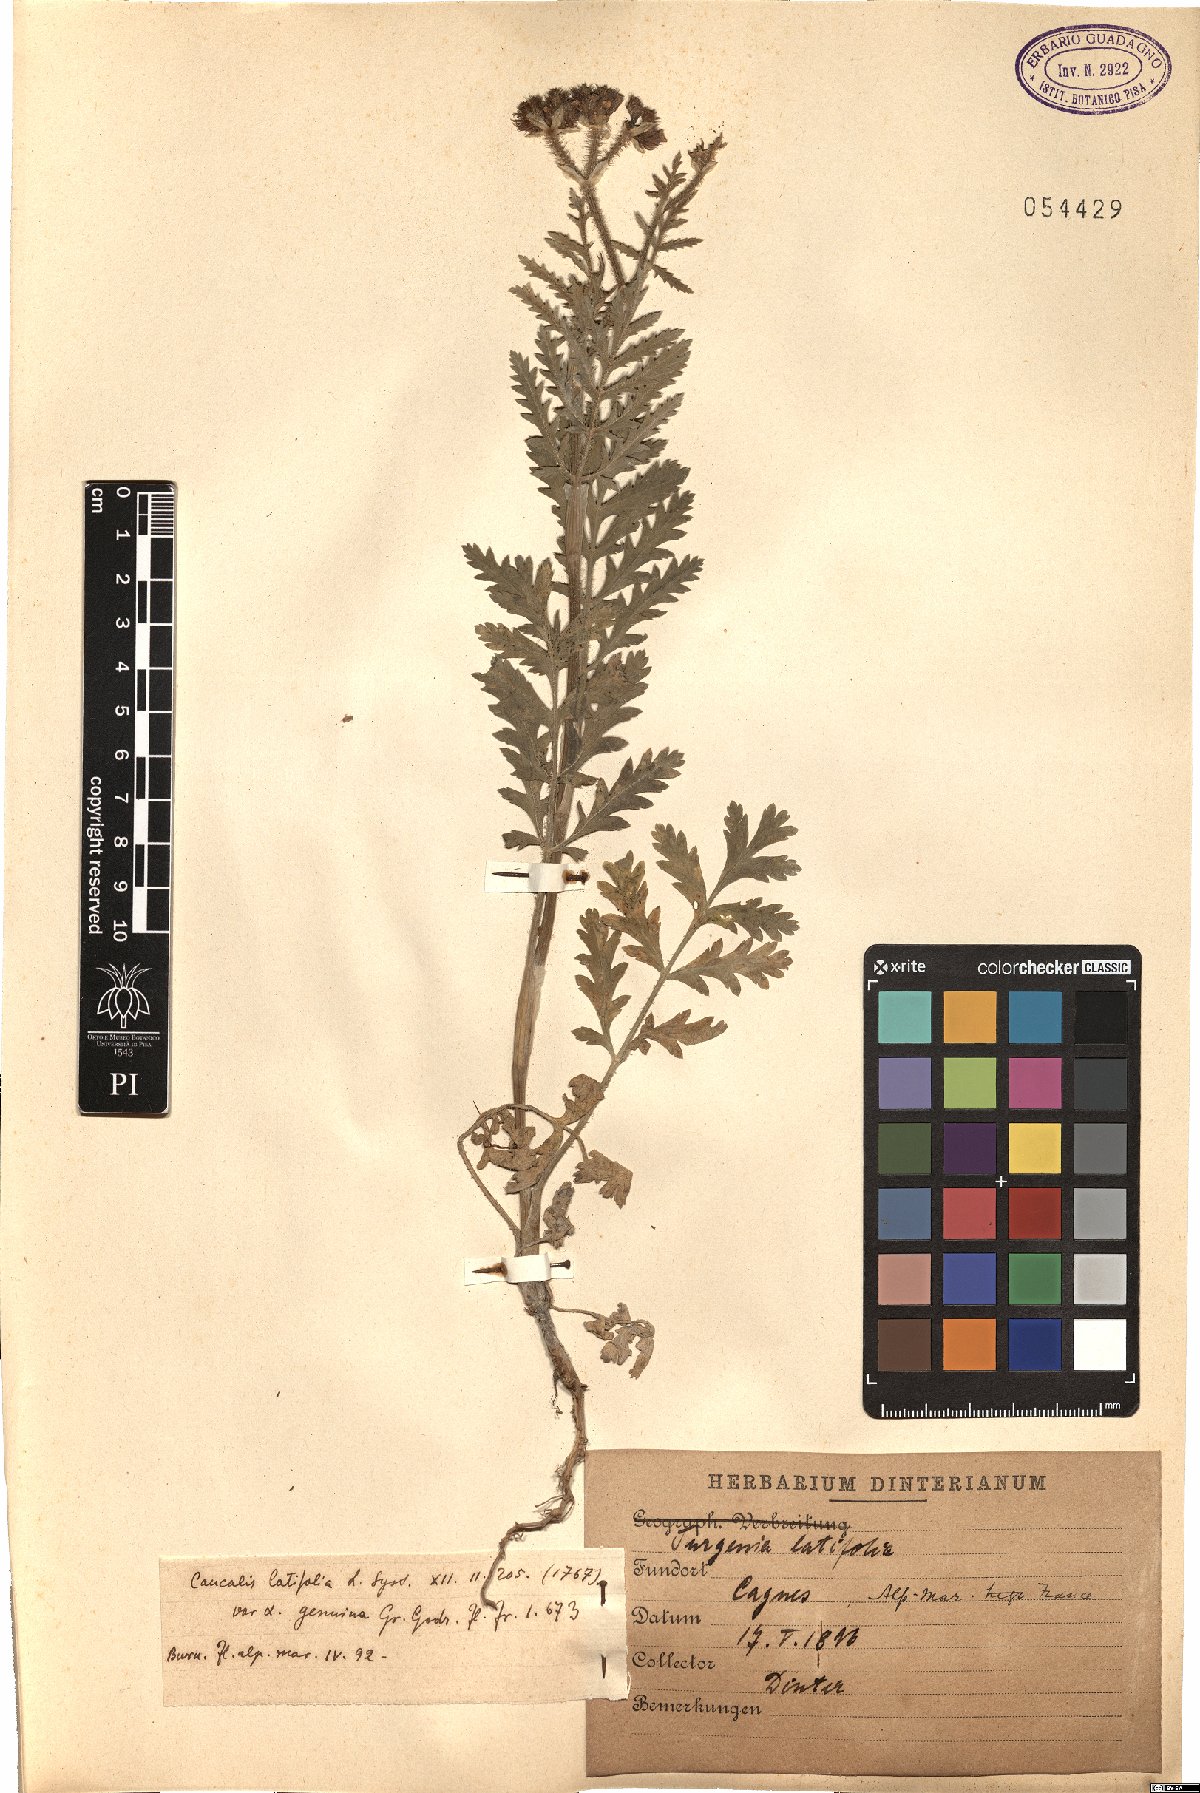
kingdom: Plantae
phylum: Tracheophyta
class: Magnoliopsida
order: Apiales
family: Apiaceae
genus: Turgenia
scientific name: Turgenia latifolia
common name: Greater bur-parsley
